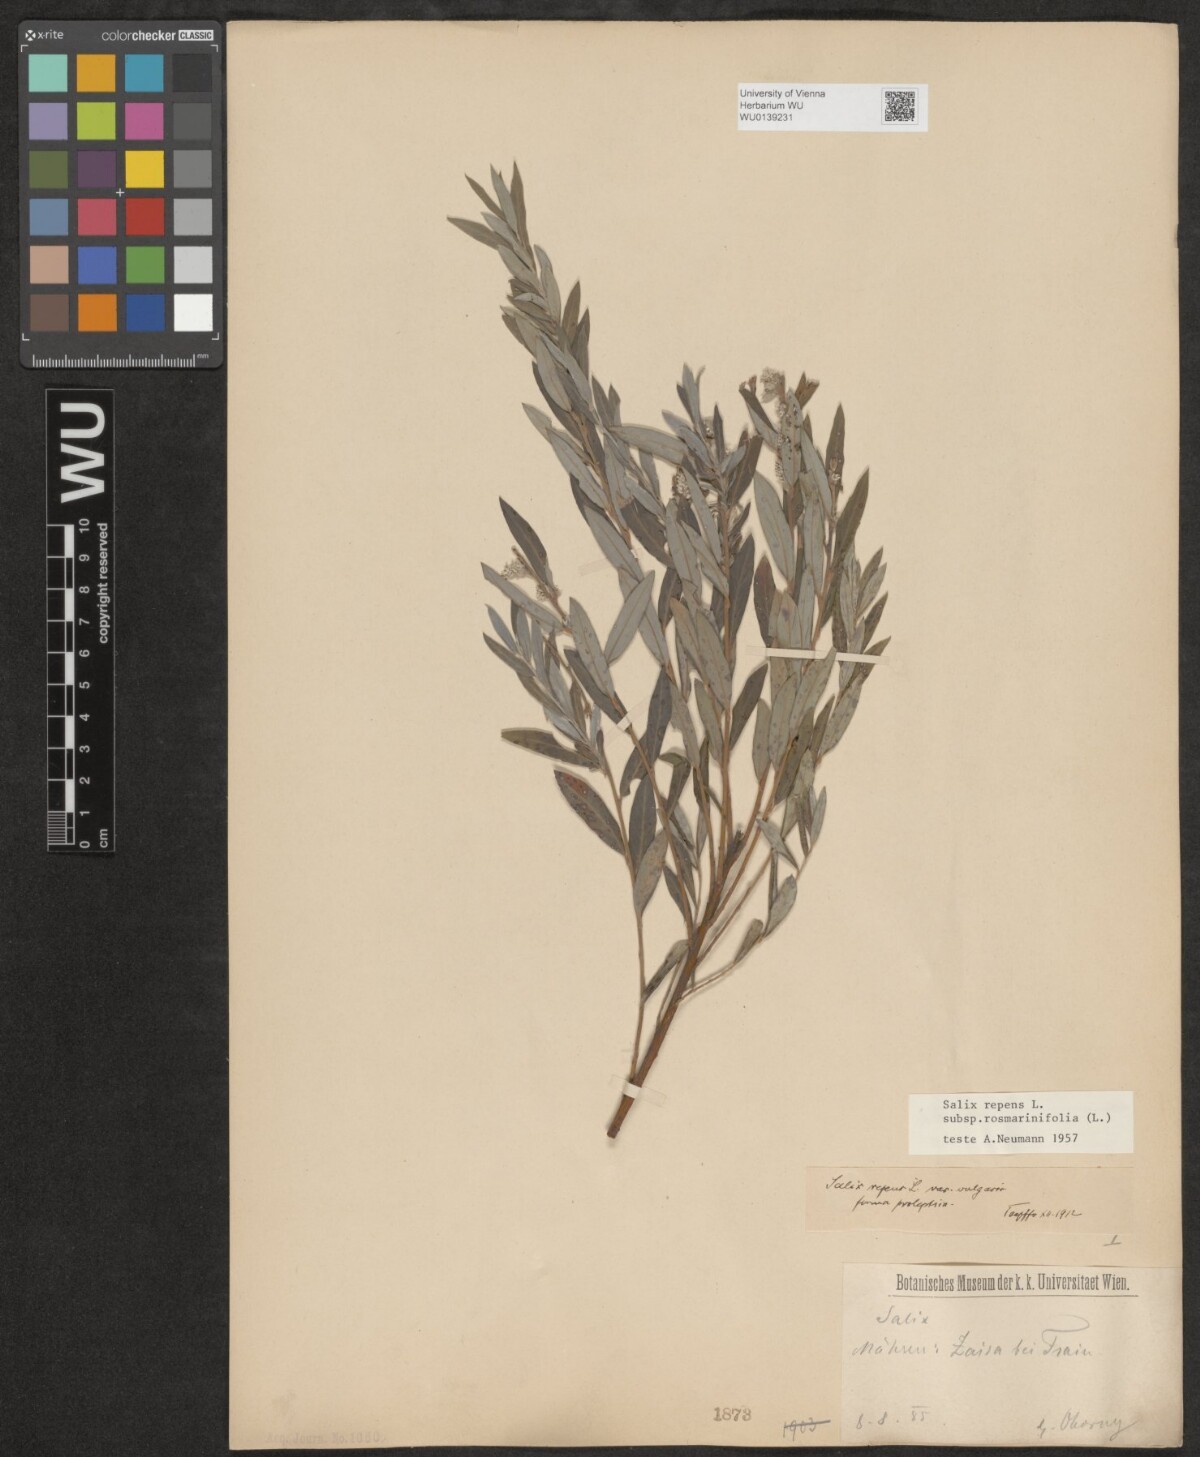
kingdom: Plantae
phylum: Tracheophyta
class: Magnoliopsida
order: Malpighiales
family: Salicaceae
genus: Salix
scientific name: Salix repens
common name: Creeping willow
